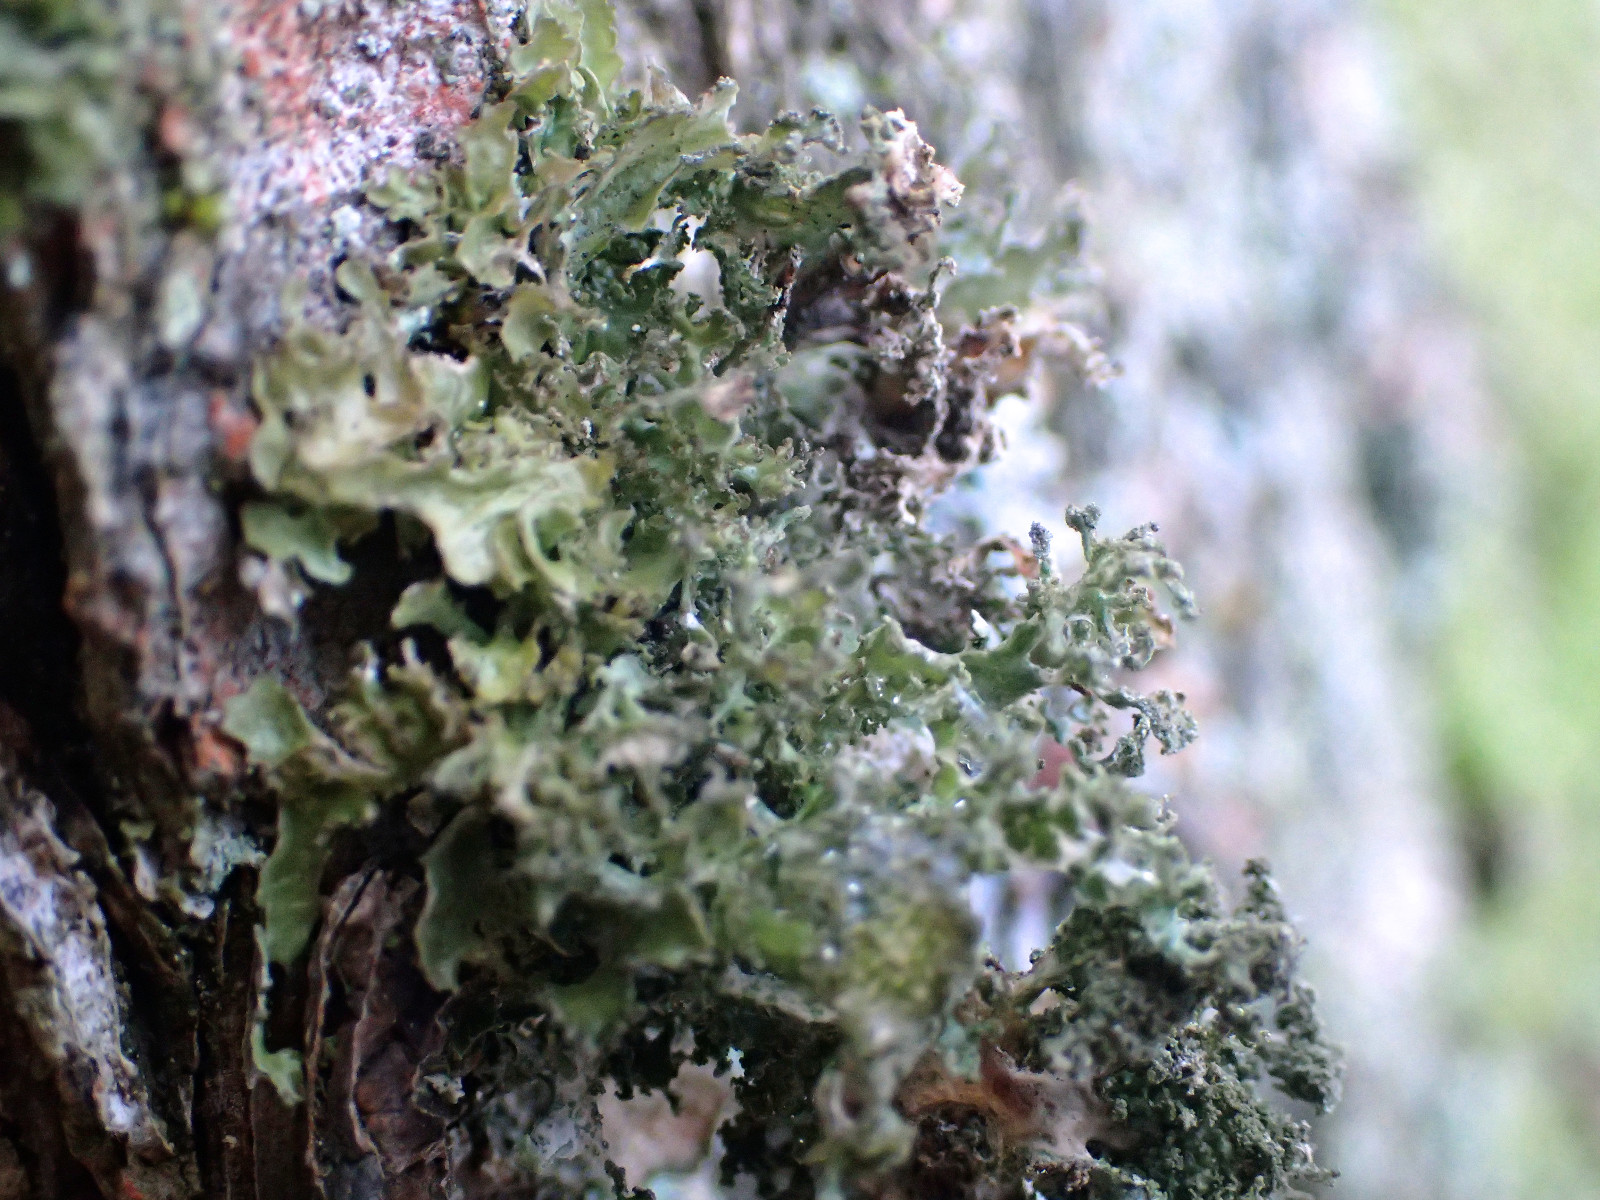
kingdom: Fungi
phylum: Ascomycota
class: Lecanoromycetes
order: Lecanorales
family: Parmeliaceae
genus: Nephromopsis
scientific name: Nephromopsis chlorophylla
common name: olivenbrun kruslav
